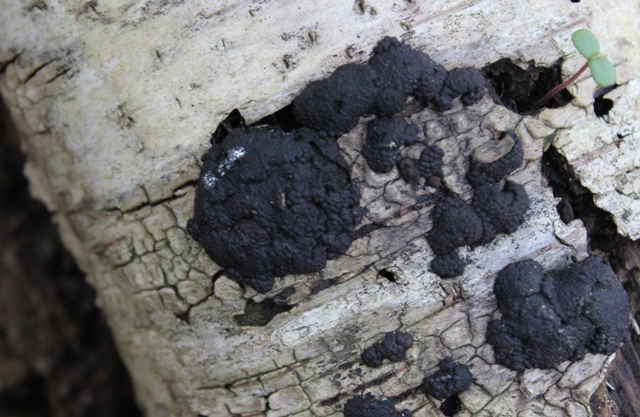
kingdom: Fungi
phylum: Ascomycota
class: Sordariomycetes
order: Xylariales
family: Hypoxylaceae
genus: Jackrogersella
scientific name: Jackrogersella multiformis
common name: foranderlig kulbær
